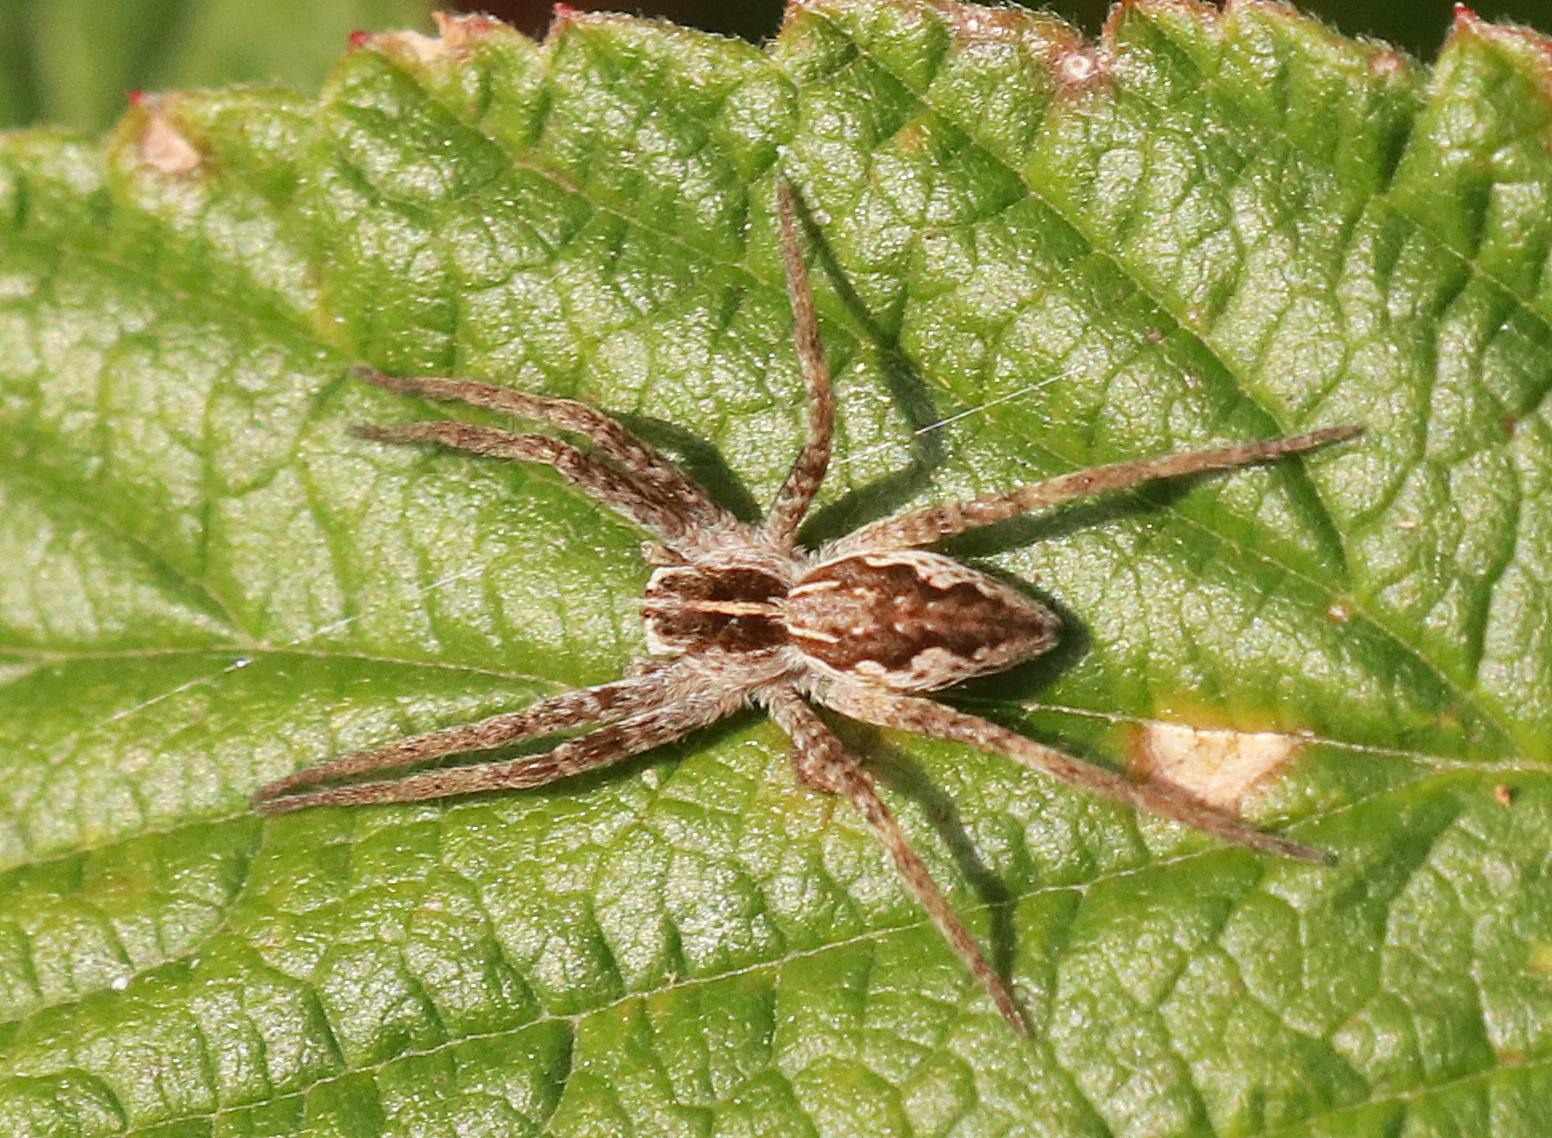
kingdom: Animalia
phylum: Arthropoda
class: Arachnida
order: Araneae
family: Pisauridae
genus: Pisaura
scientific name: Pisaura mirabilis
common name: Almindelig rovedderkop
